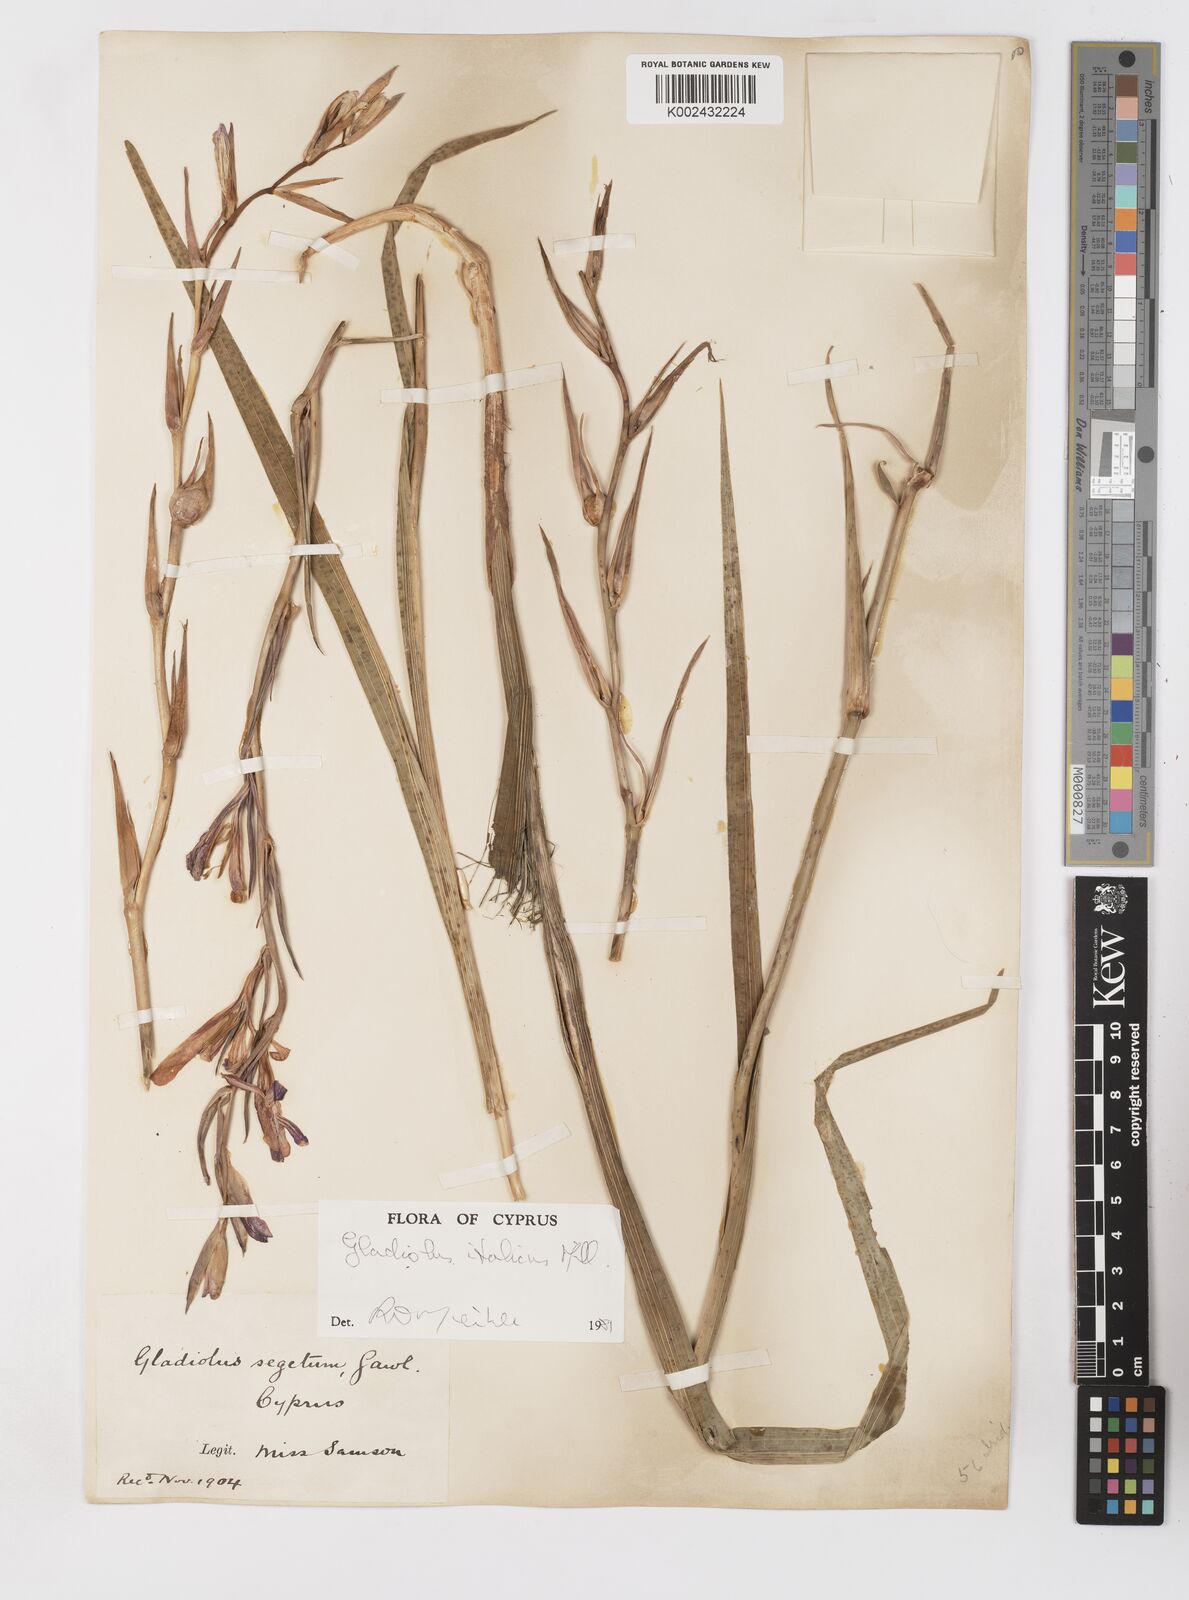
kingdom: Plantae
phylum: Tracheophyta
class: Liliopsida
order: Asparagales
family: Iridaceae
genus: Gladiolus
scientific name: Gladiolus italicus
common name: Field gladiolus
